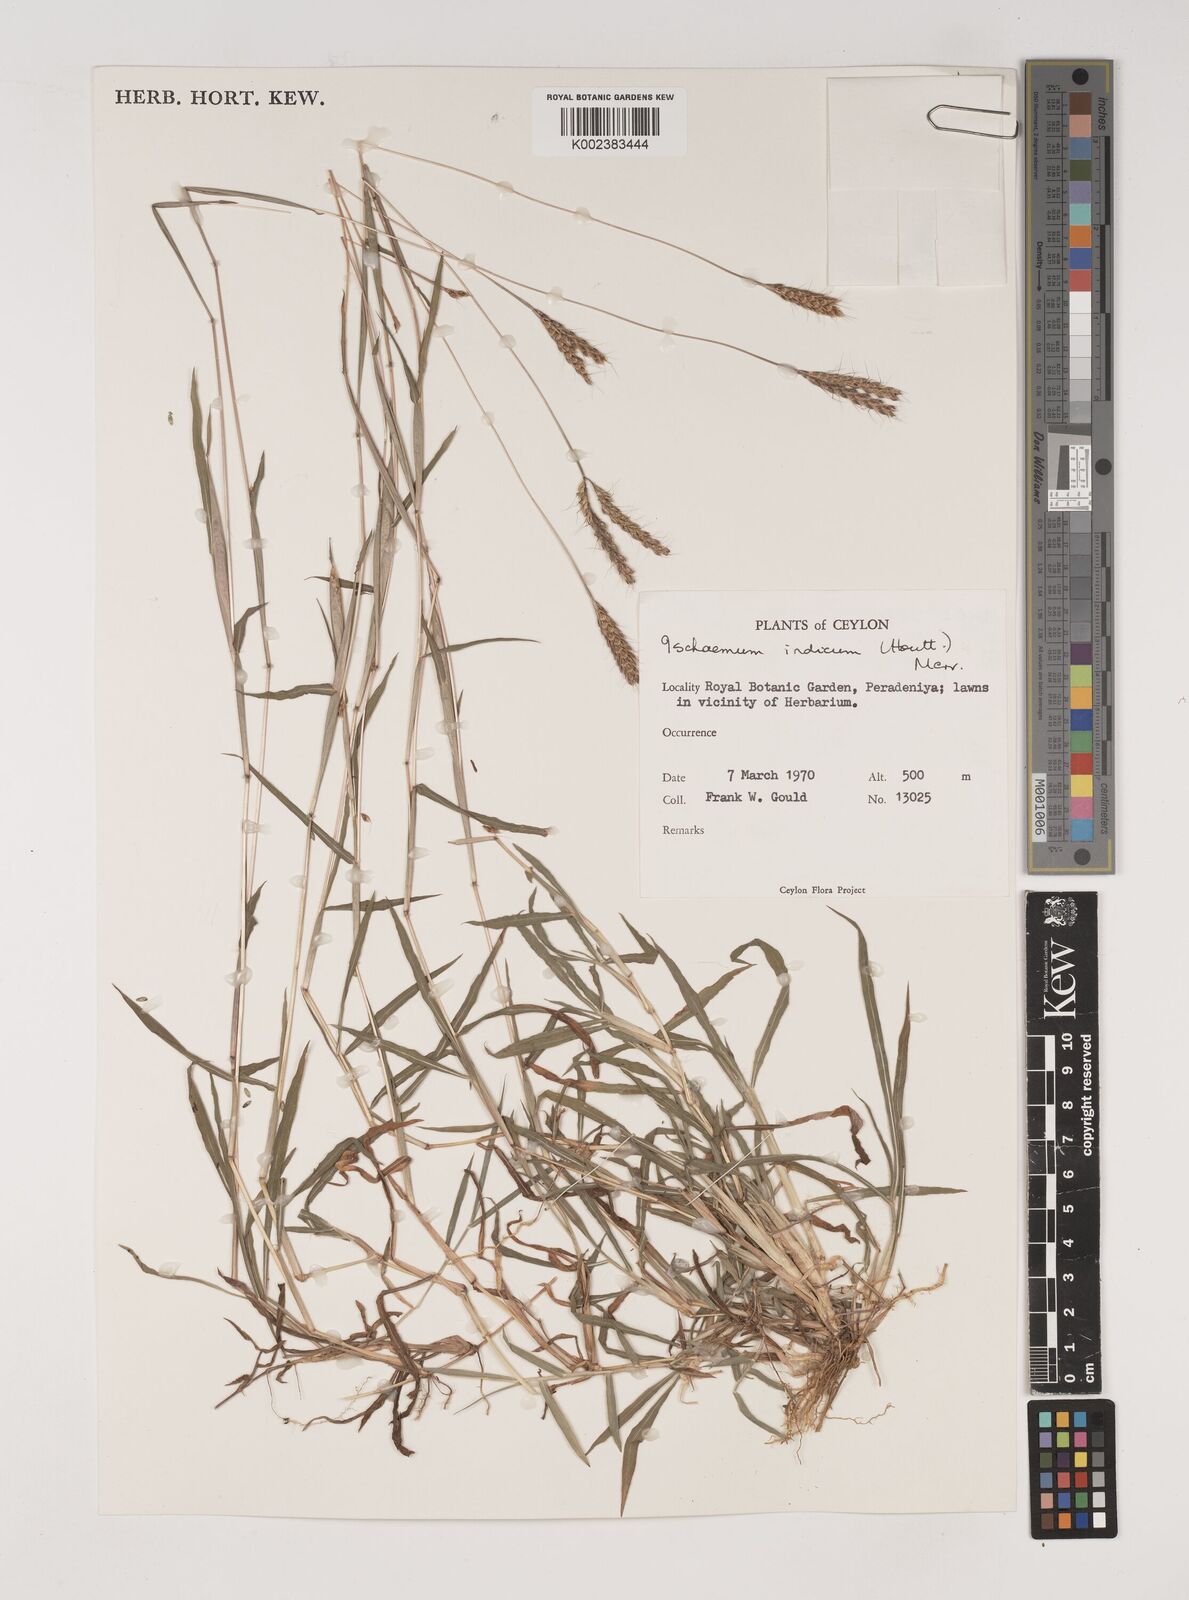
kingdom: Plantae
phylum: Tracheophyta
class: Liliopsida
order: Poales
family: Poaceae
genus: Polytrias
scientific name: Polytrias indica
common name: Indian murainagrass
